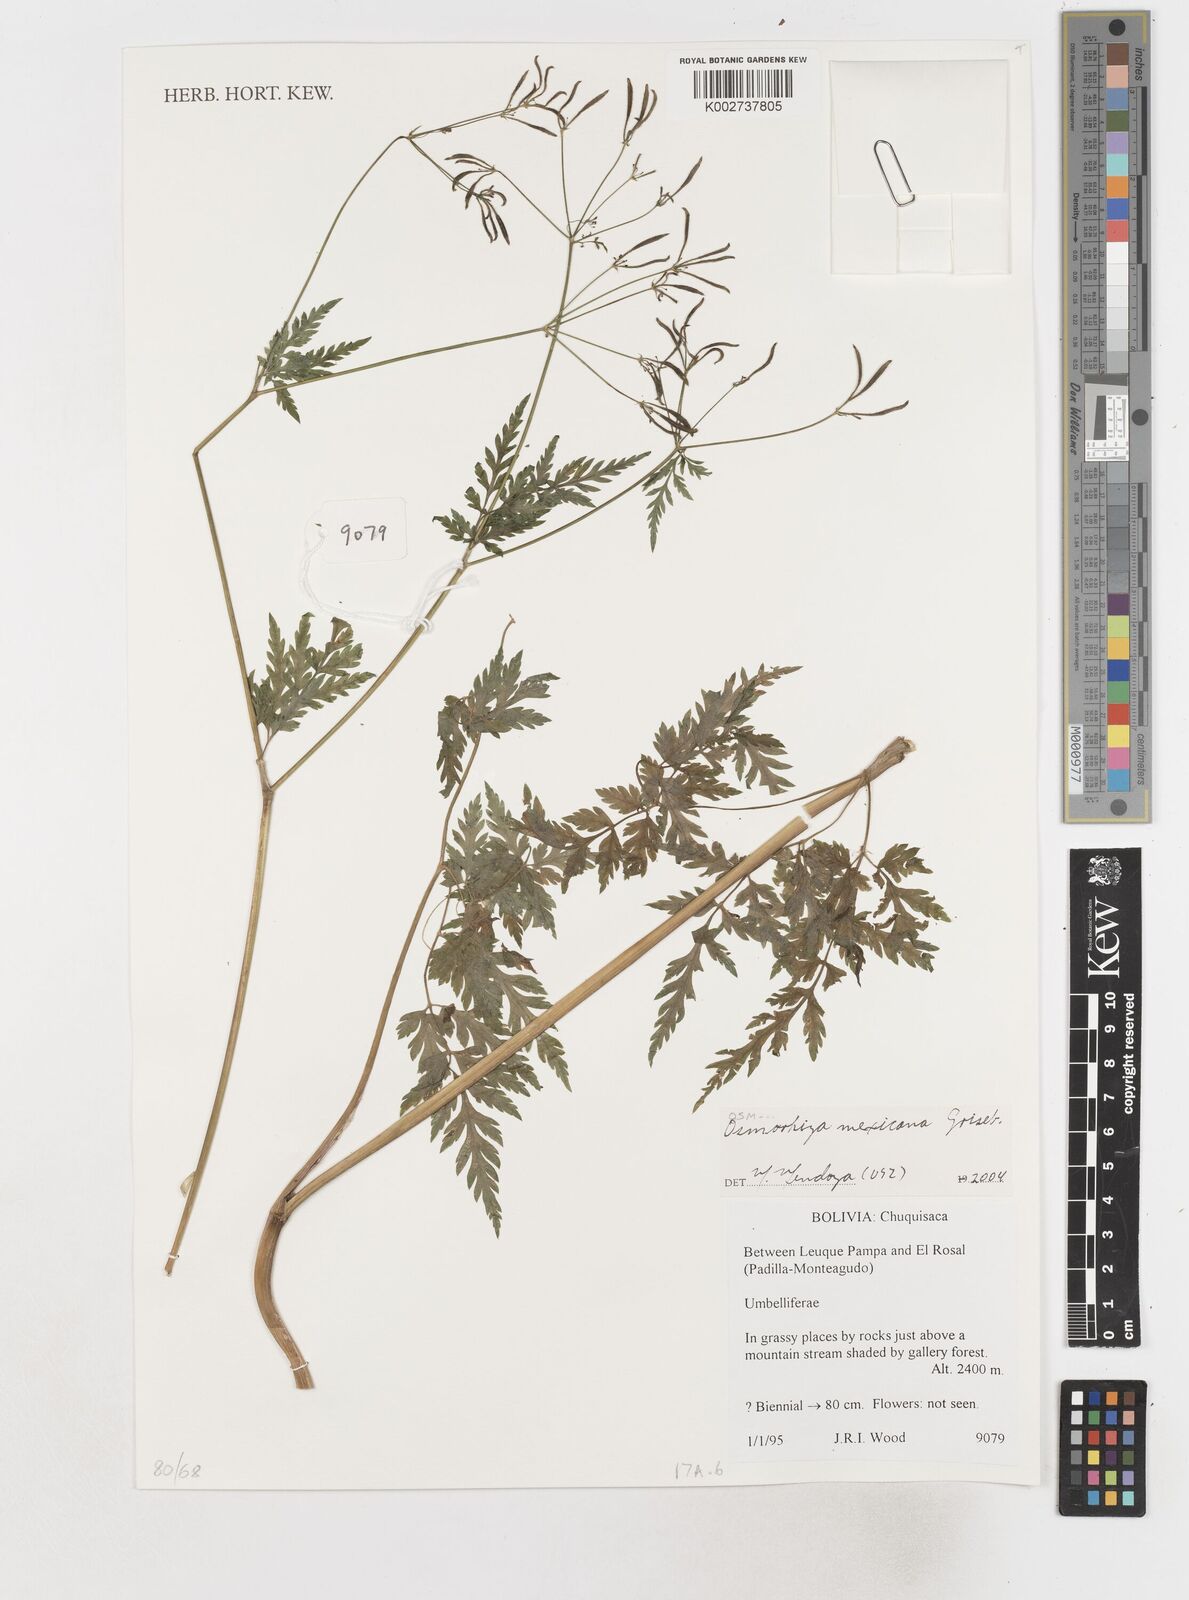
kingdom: Plantae
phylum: Tracheophyta
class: Magnoliopsida
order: Apiales
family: Apiaceae
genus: Osmorhiza
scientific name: Osmorhiza mexicana
